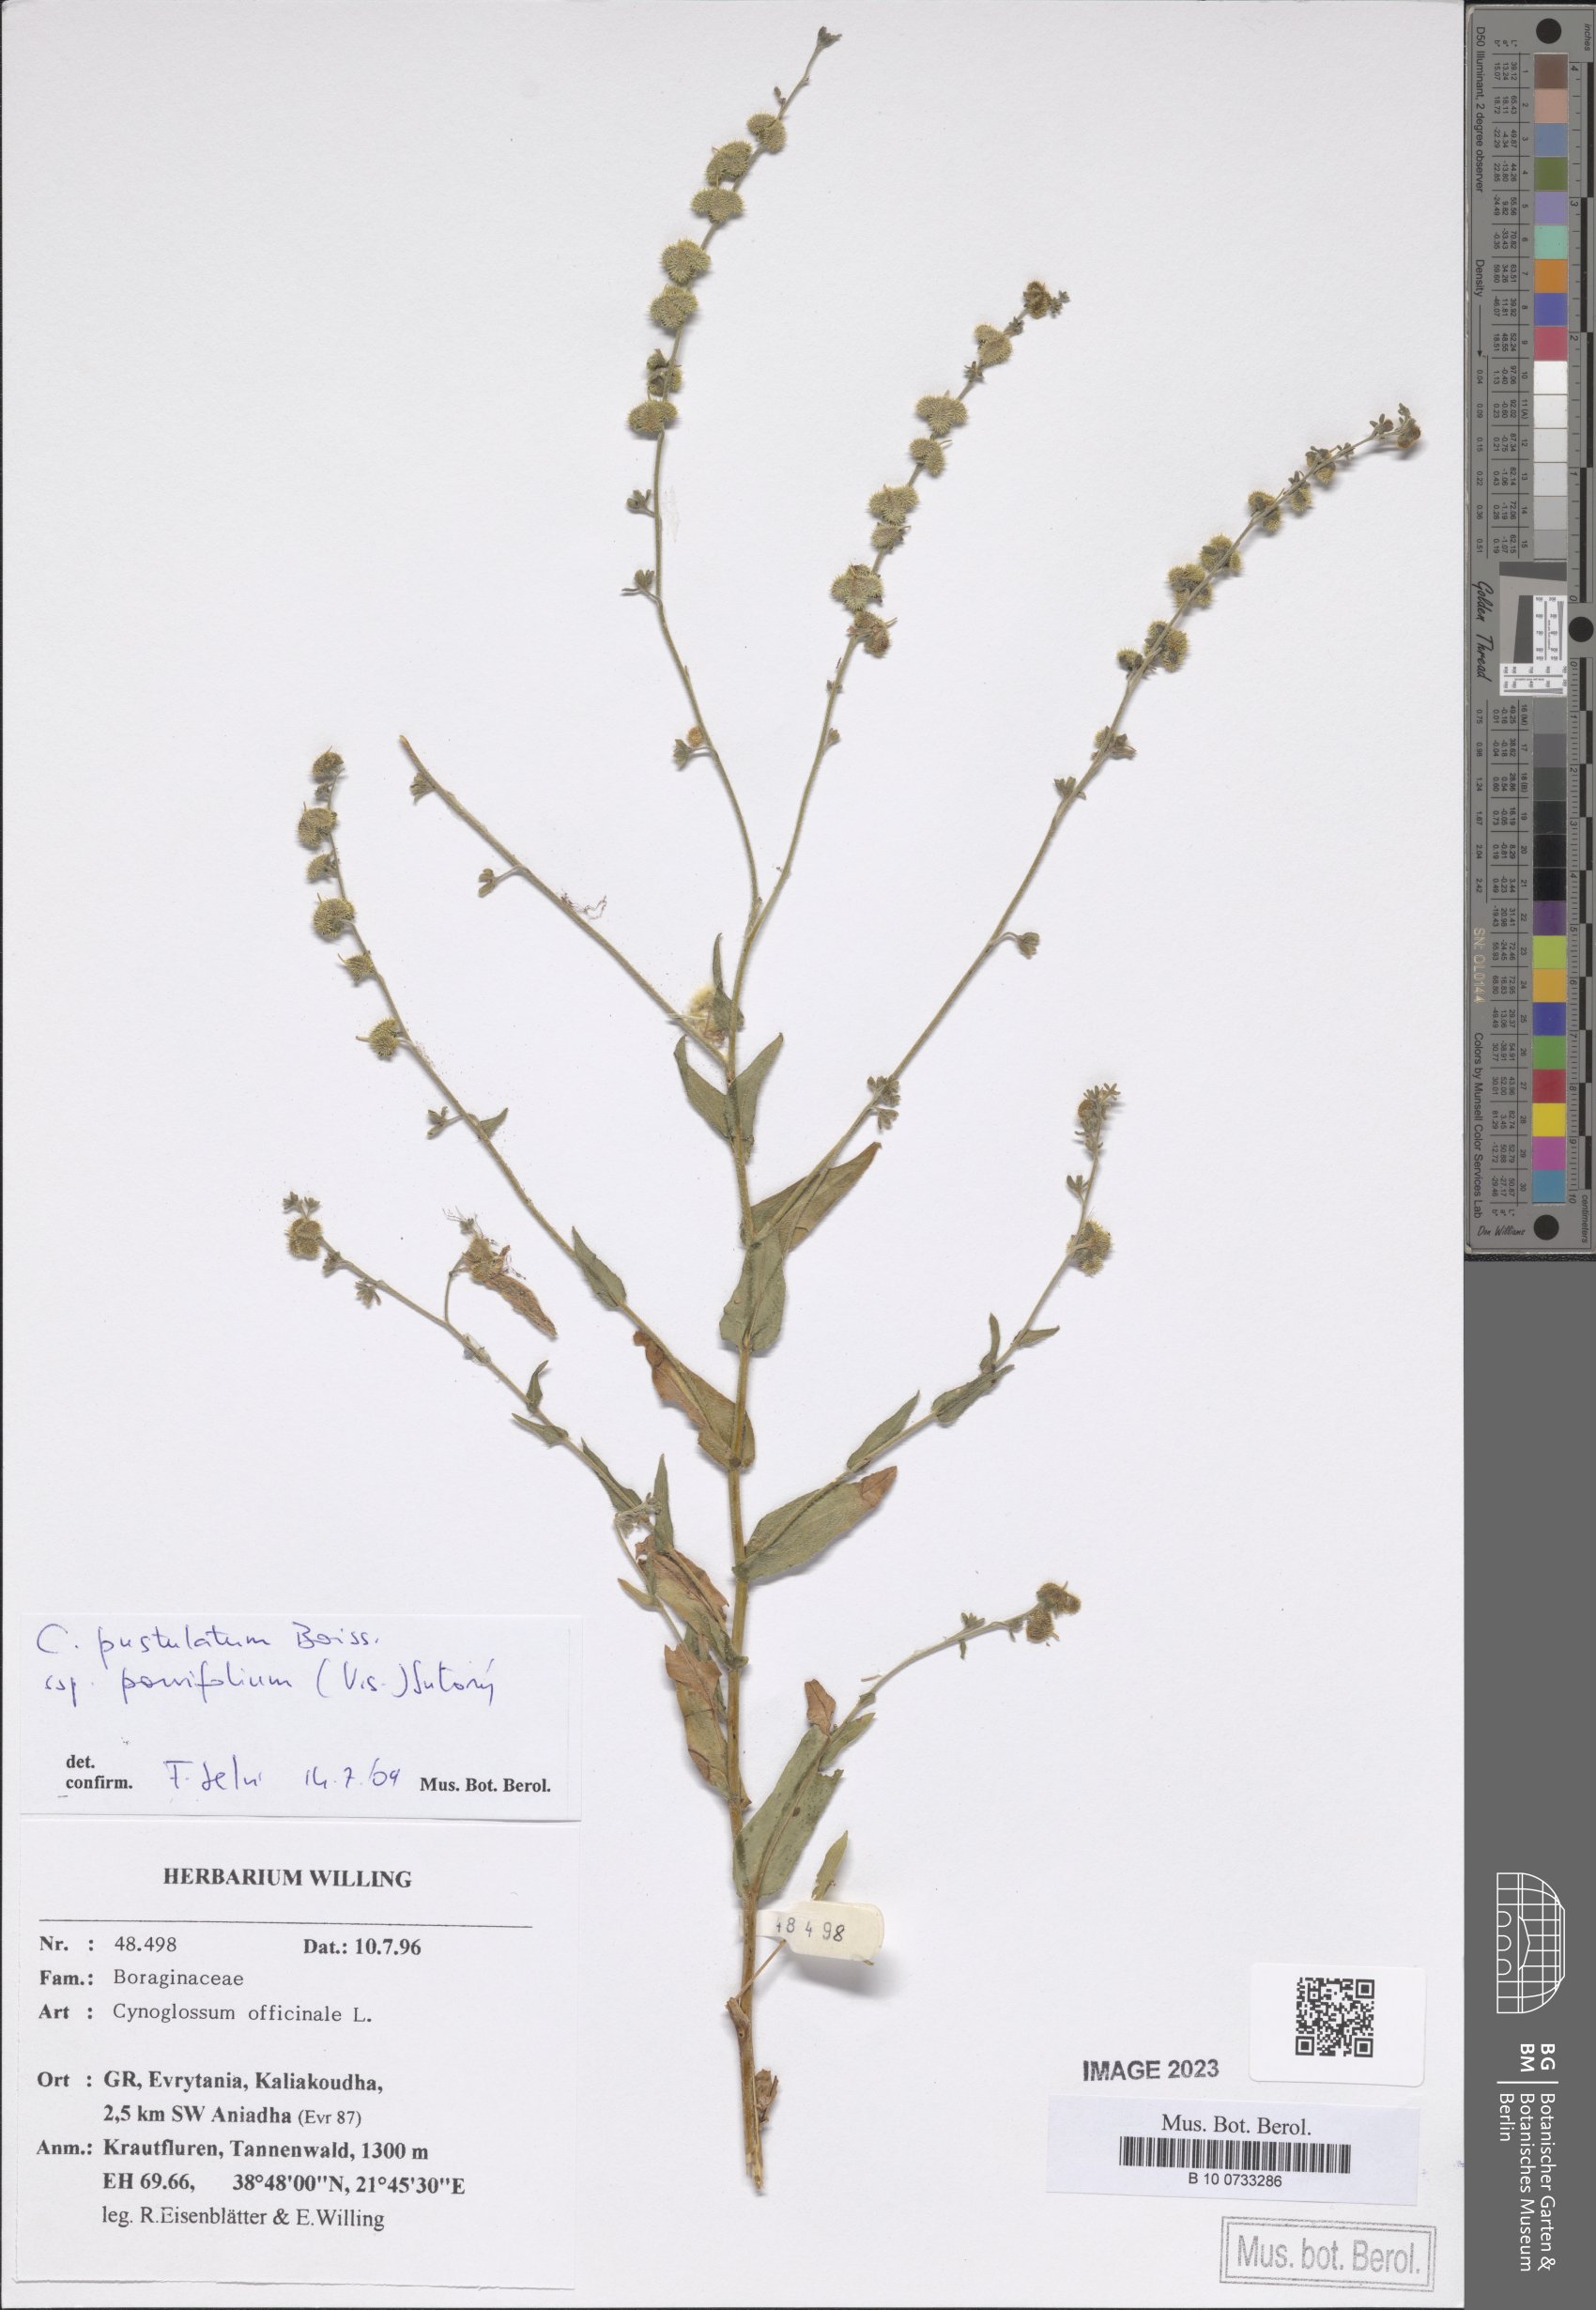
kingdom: Plantae
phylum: Tracheophyta
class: Magnoliopsida
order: Boraginales
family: Boraginaceae
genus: Cynoglossum
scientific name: Cynoglossum pustulatum
